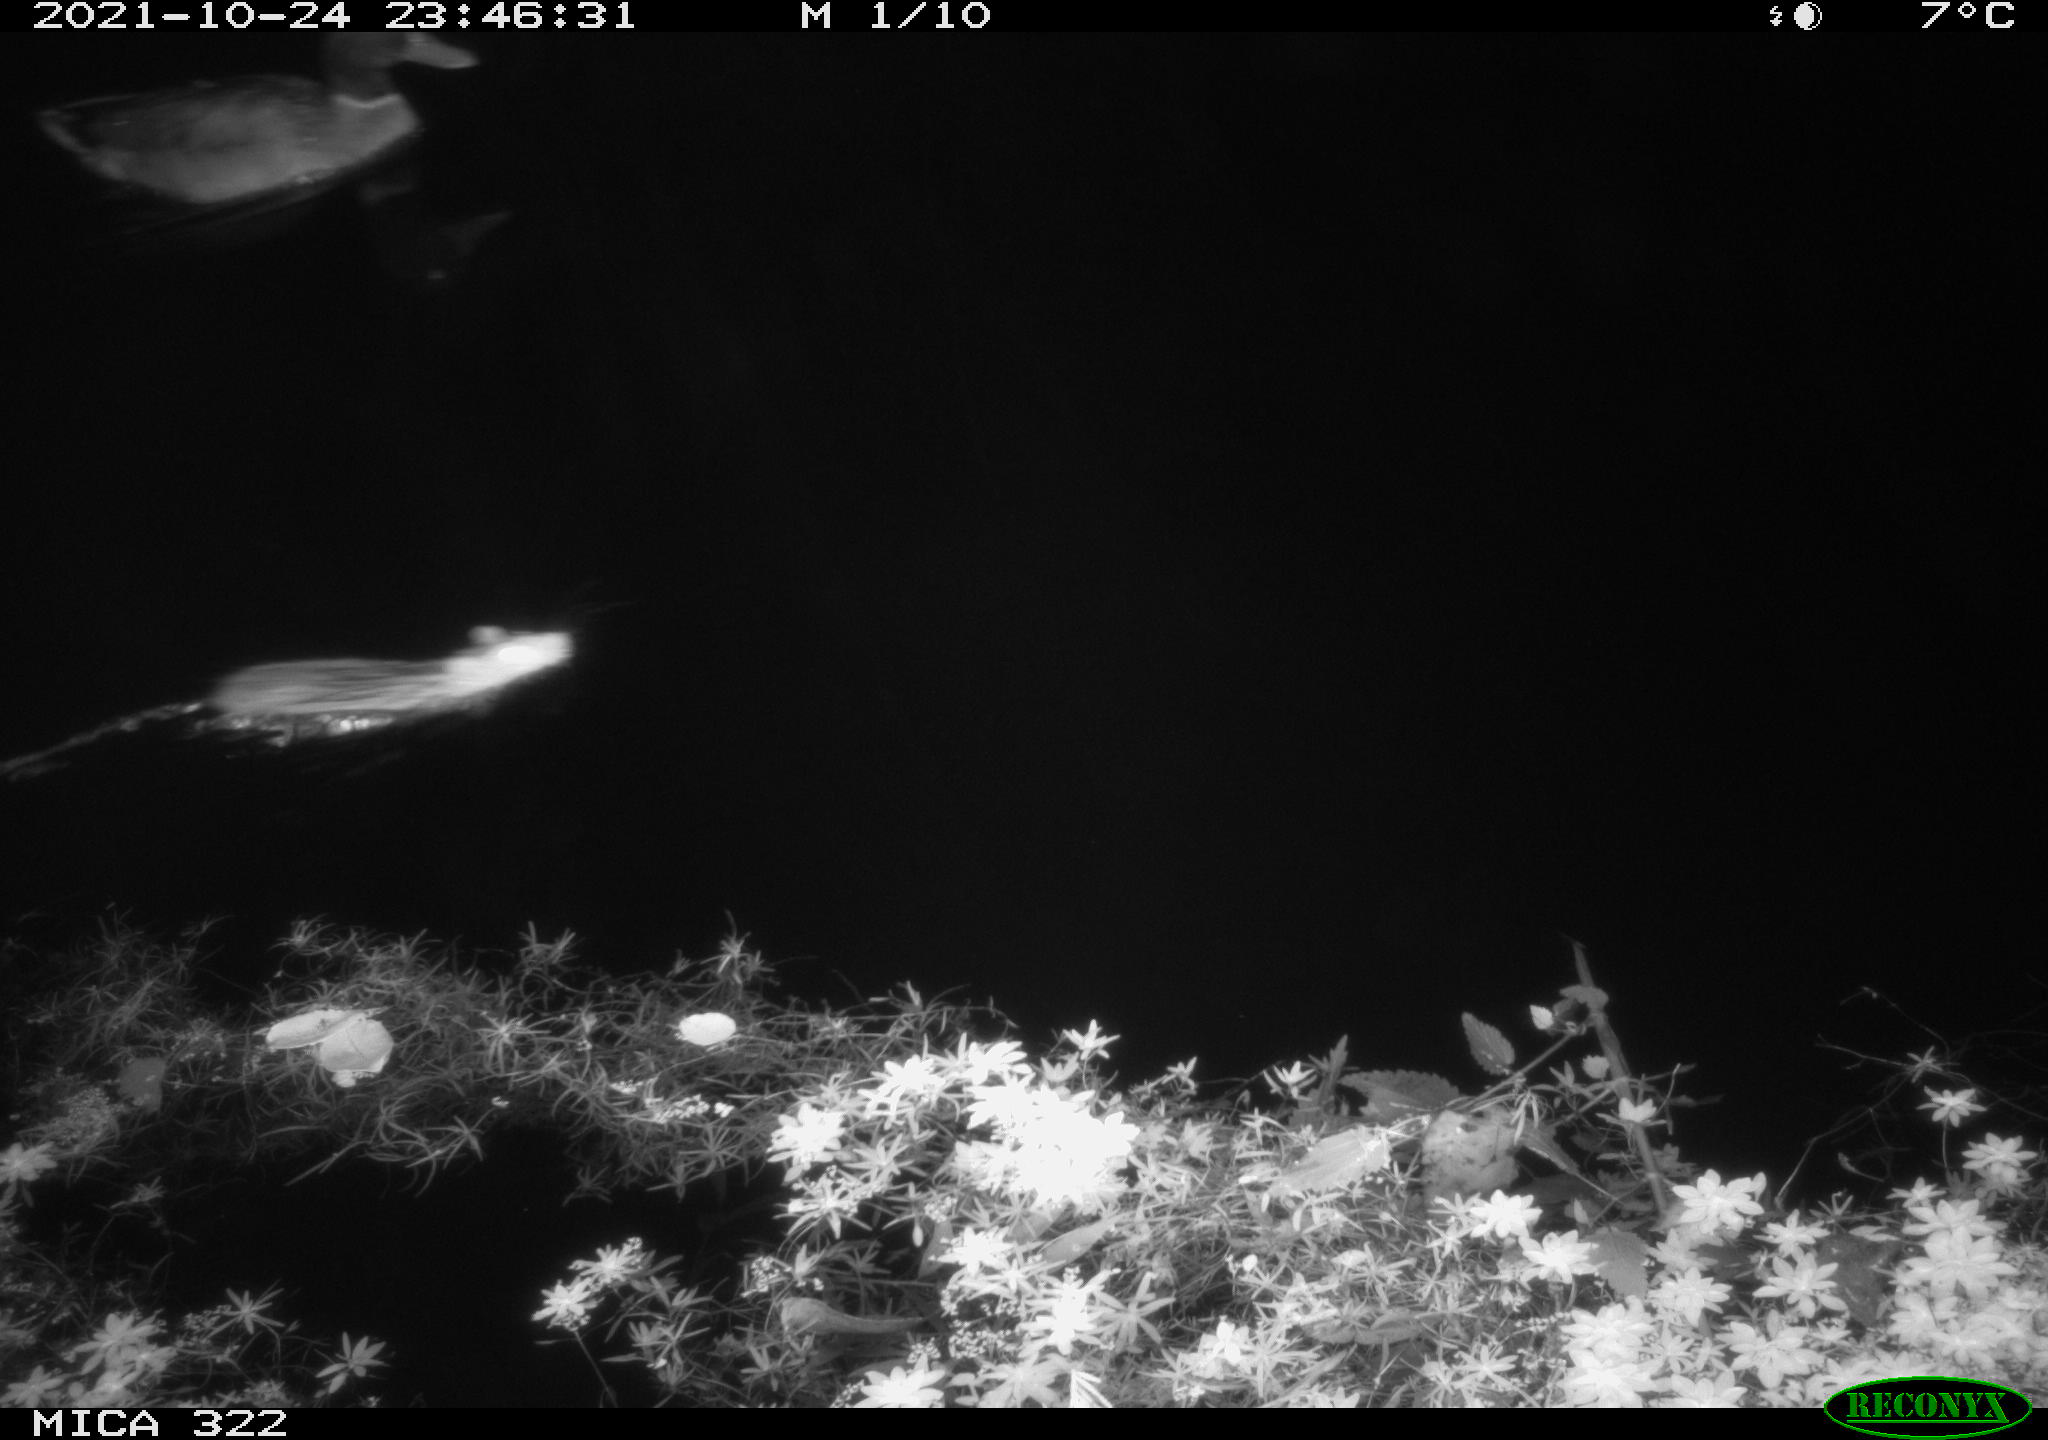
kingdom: Animalia
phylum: Chordata
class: Aves
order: Anseriformes
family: Anatidae
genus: Anas
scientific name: Anas platyrhynchos
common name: Mallard
